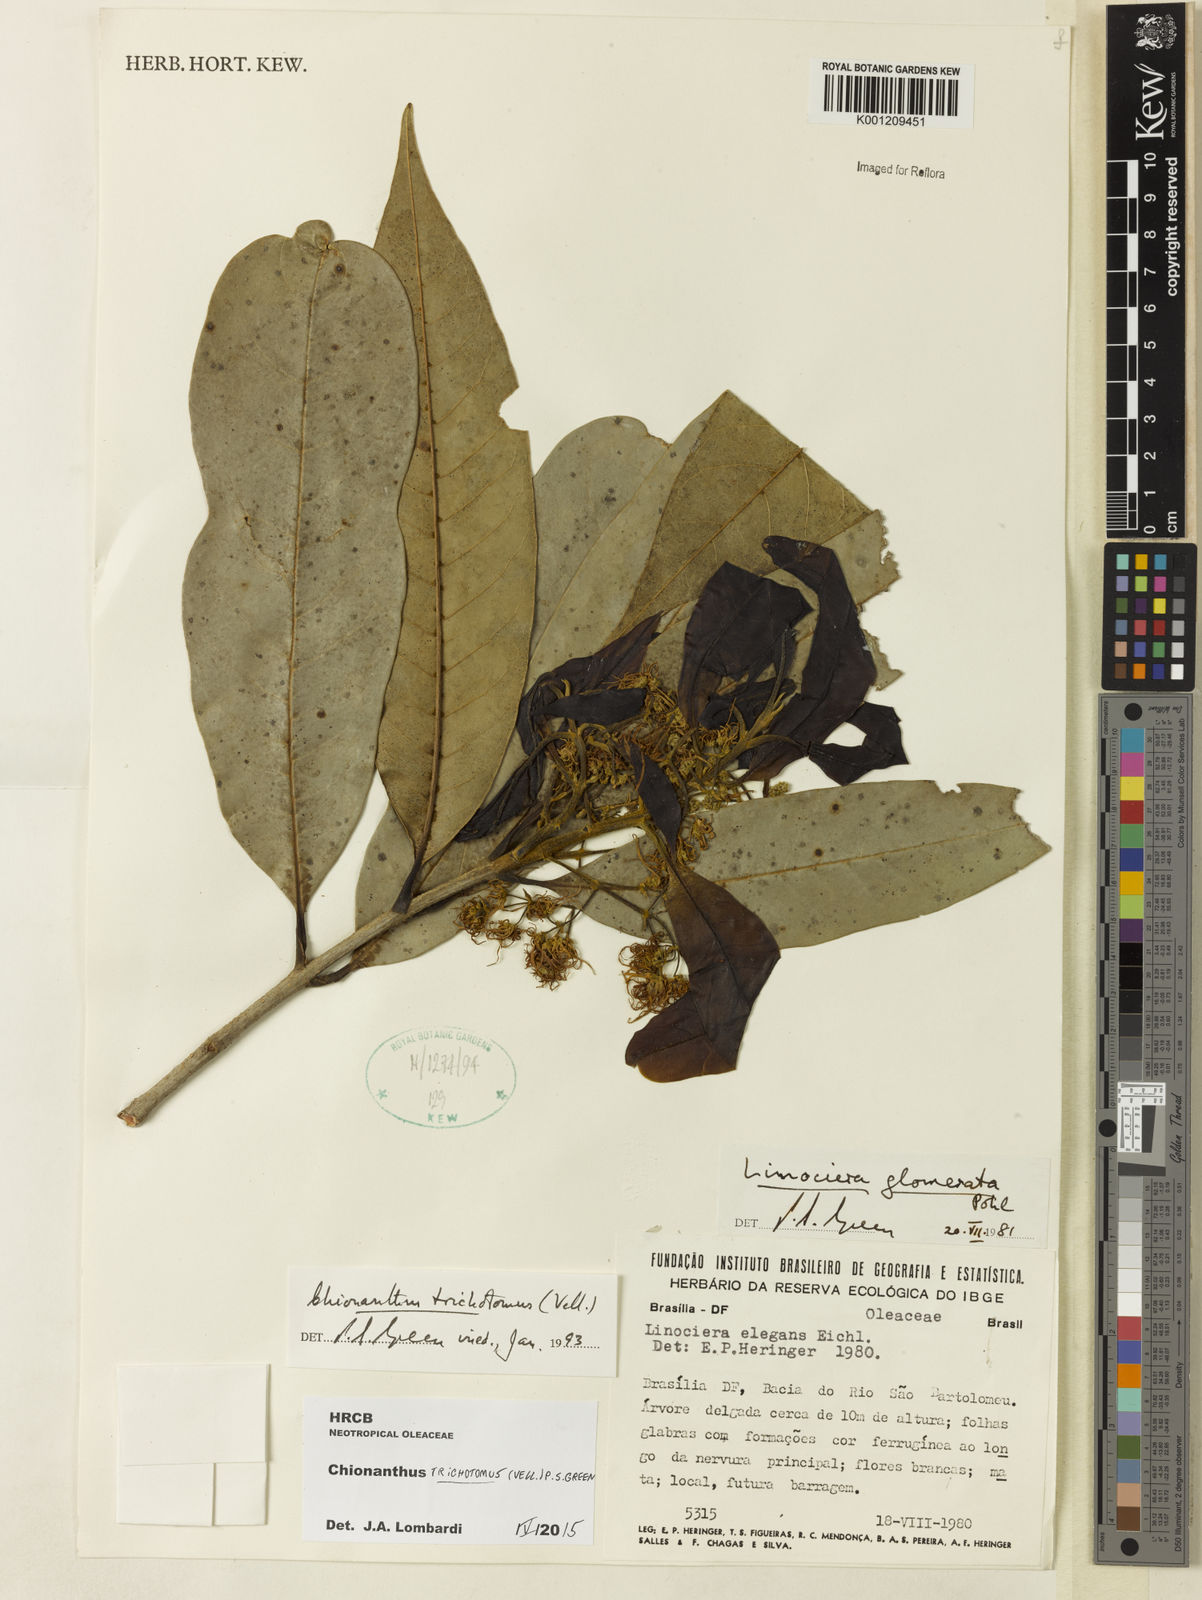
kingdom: Plantae
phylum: Tracheophyta
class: Magnoliopsida
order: Lamiales
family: Oleaceae
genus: Chionanthus
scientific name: Chionanthus trichotomus
